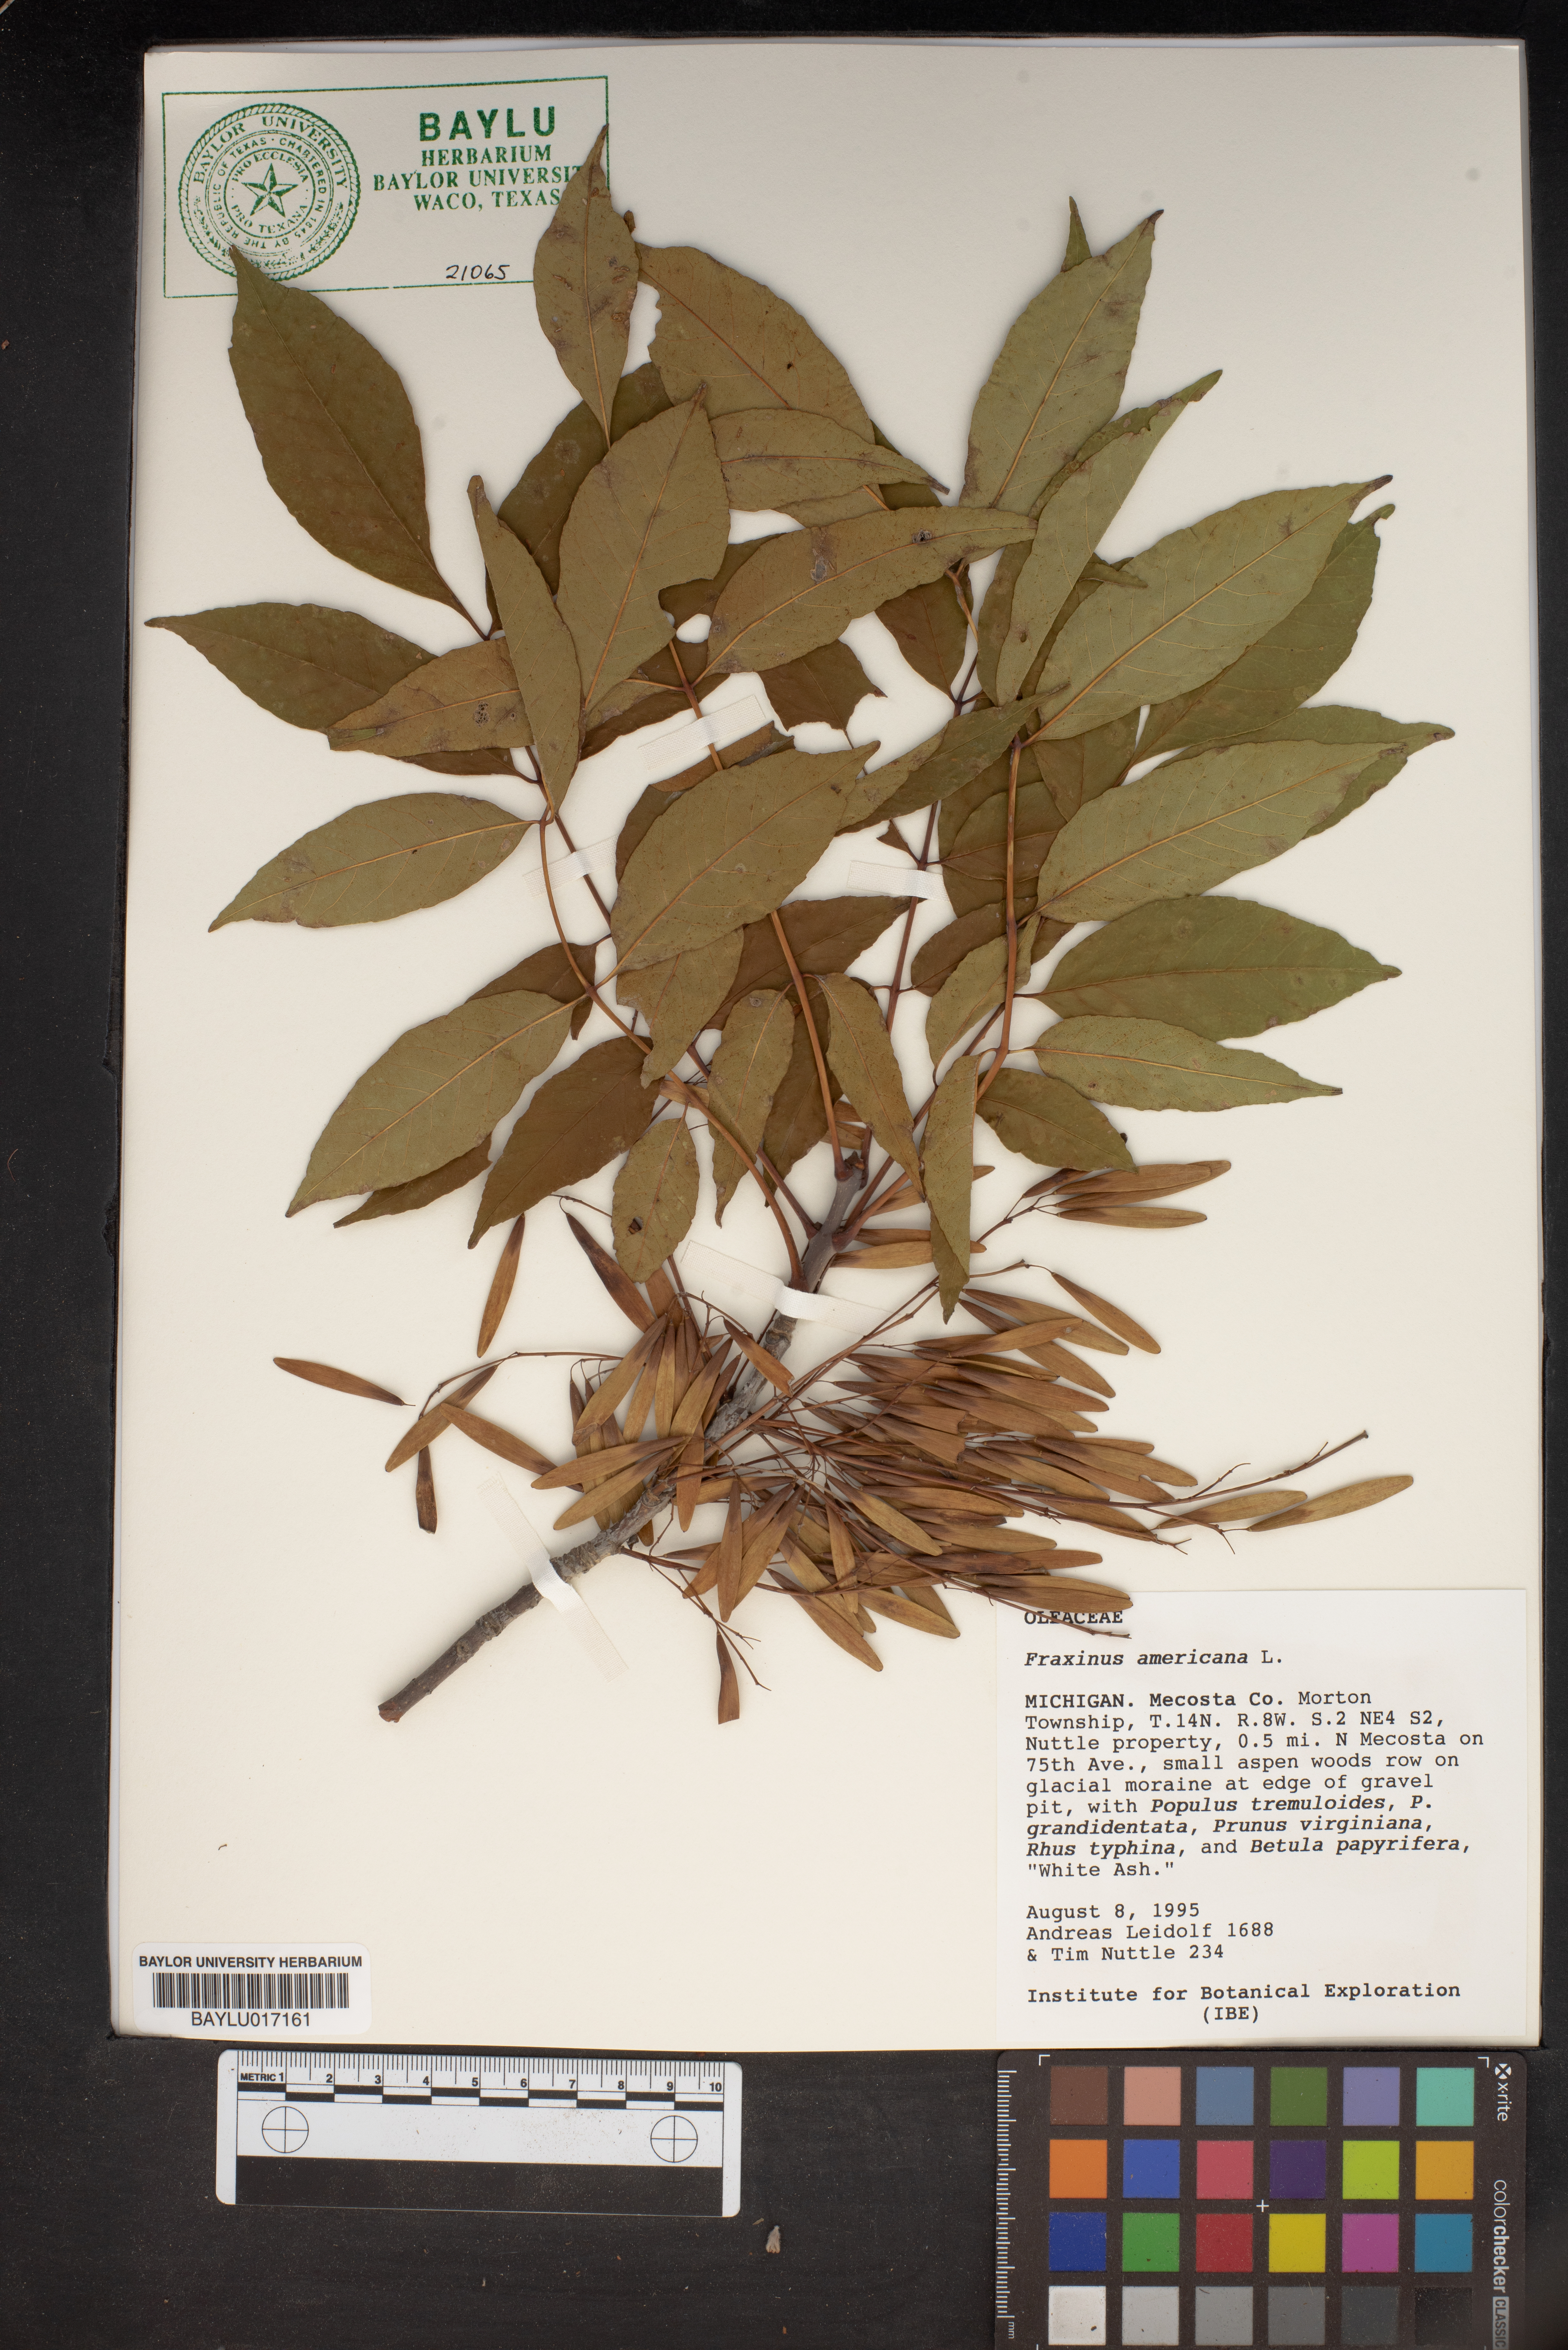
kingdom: Plantae
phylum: Tracheophyta
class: Magnoliopsida
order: Lamiales
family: Oleaceae
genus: Fraxinus
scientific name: Fraxinus americana
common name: White ash
